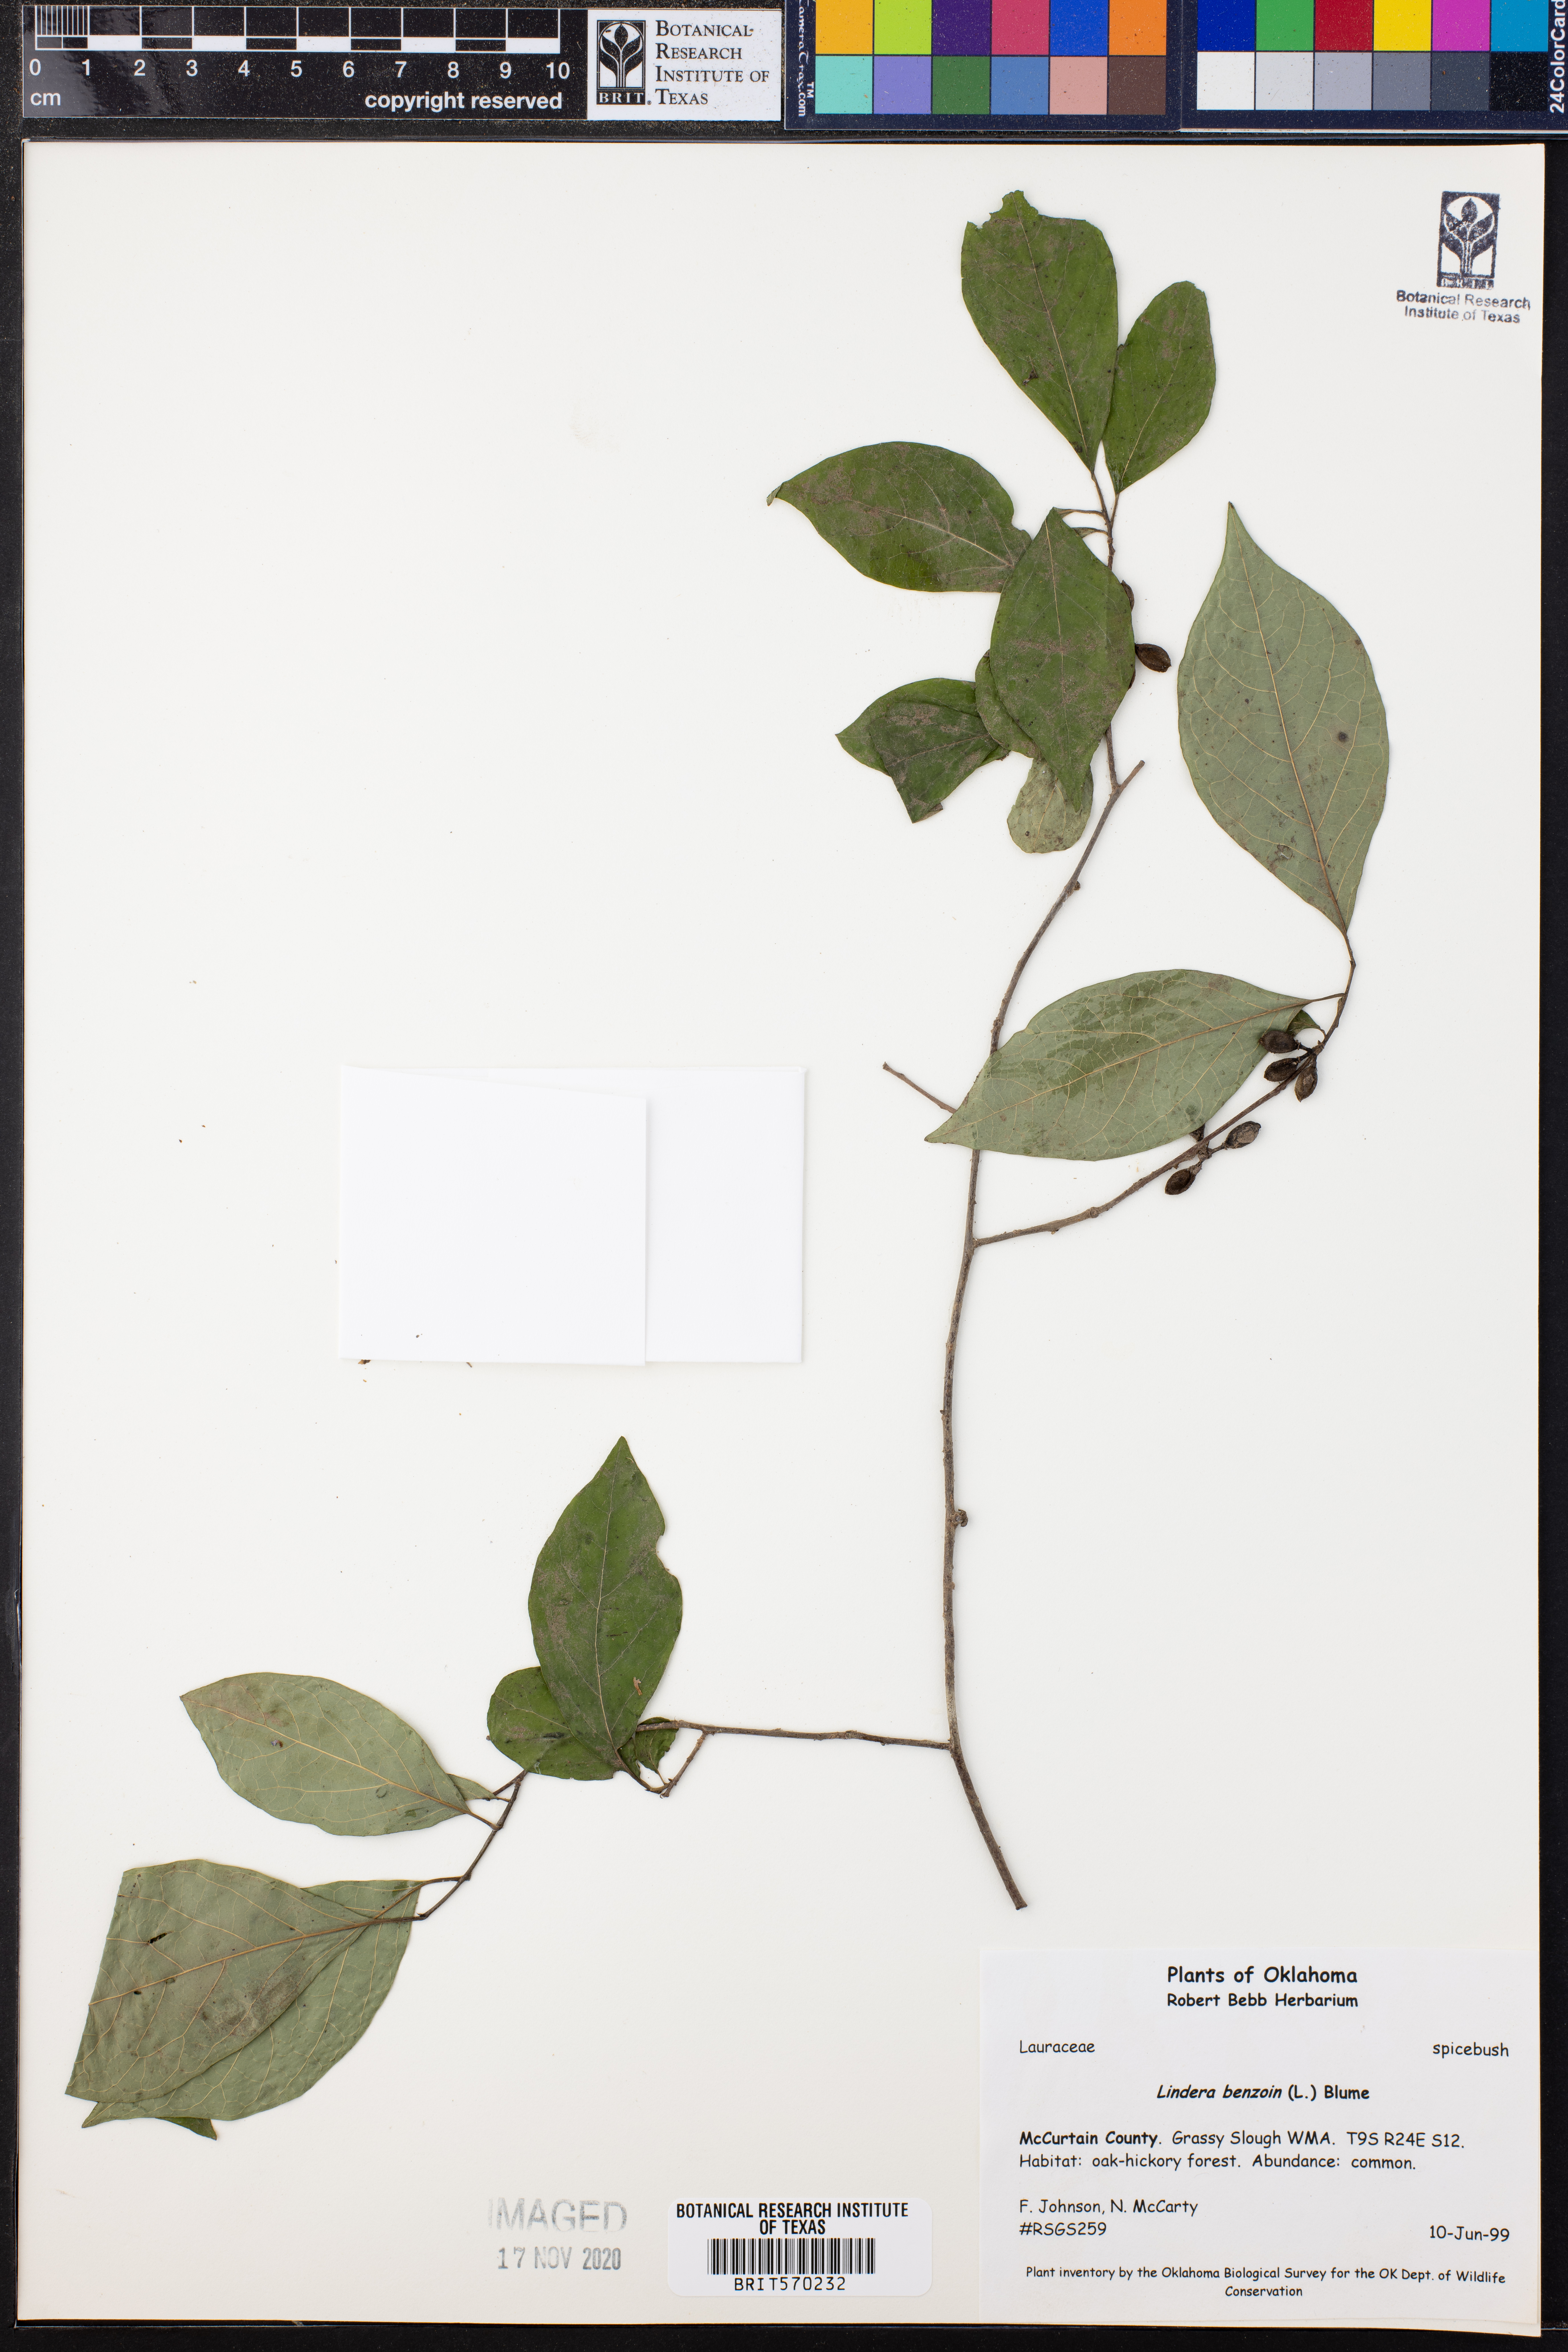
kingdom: Plantae
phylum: Tracheophyta
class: Magnoliopsida
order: Laurales
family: Lauraceae
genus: Lindera
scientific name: Lindera benzoin
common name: Spicebush
